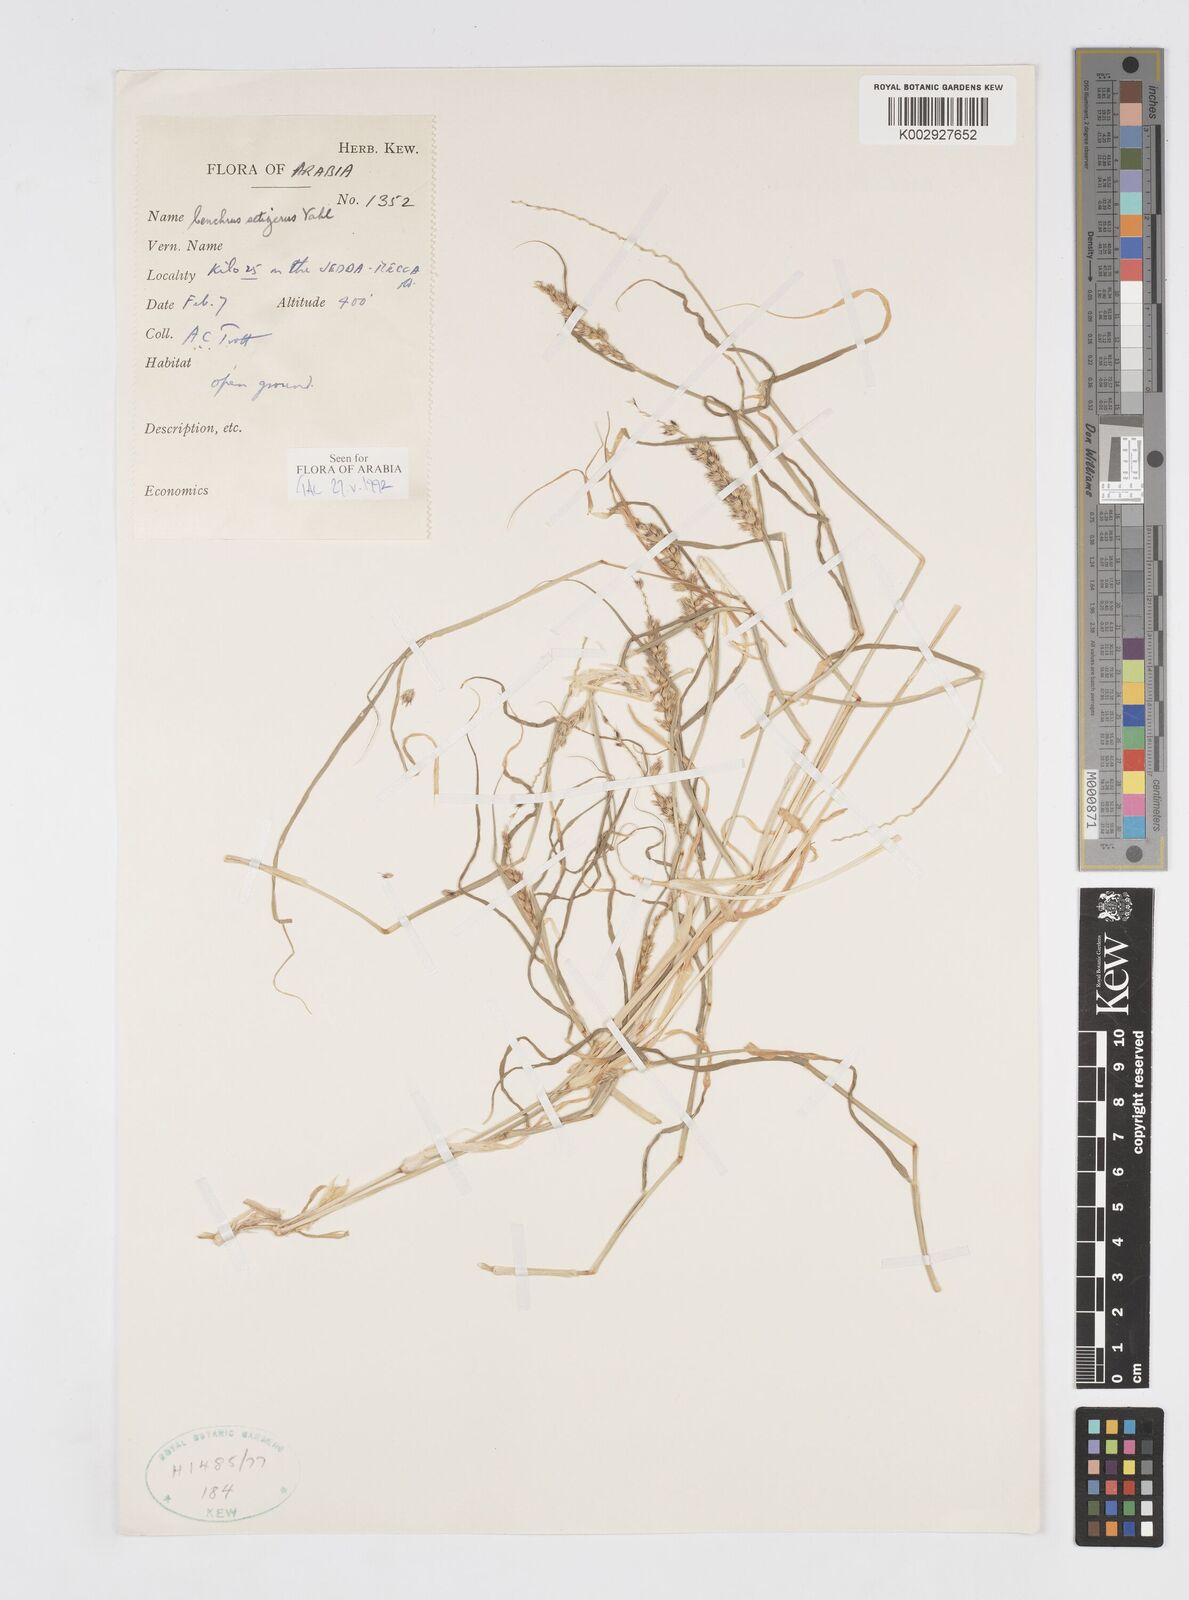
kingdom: Plantae
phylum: Tracheophyta
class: Liliopsida
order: Poales
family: Poaceae
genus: Cenchrus
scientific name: Cenchrus setigerus
